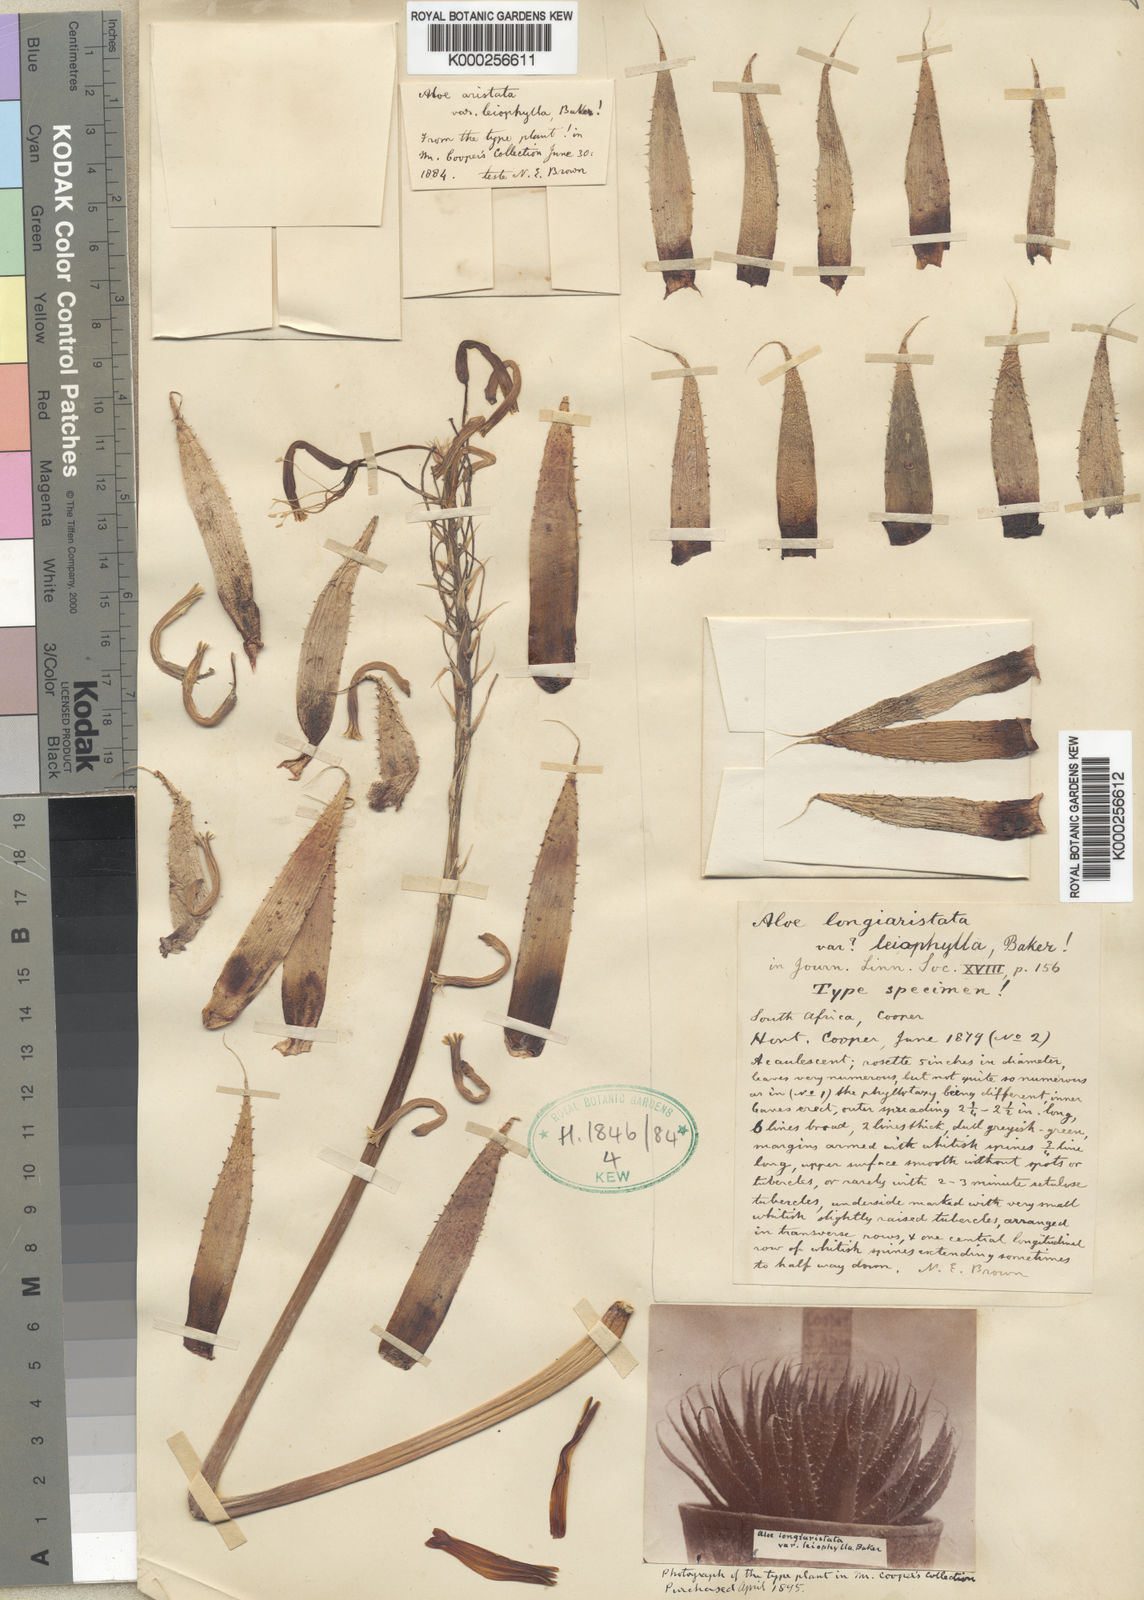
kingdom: Plantae
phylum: Tracheophyta
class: Liliopsida
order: Asparagales
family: Asphodelaceae
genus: Aristaloe
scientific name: Aristaloe aristata
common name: Guinea-fowl aloe
